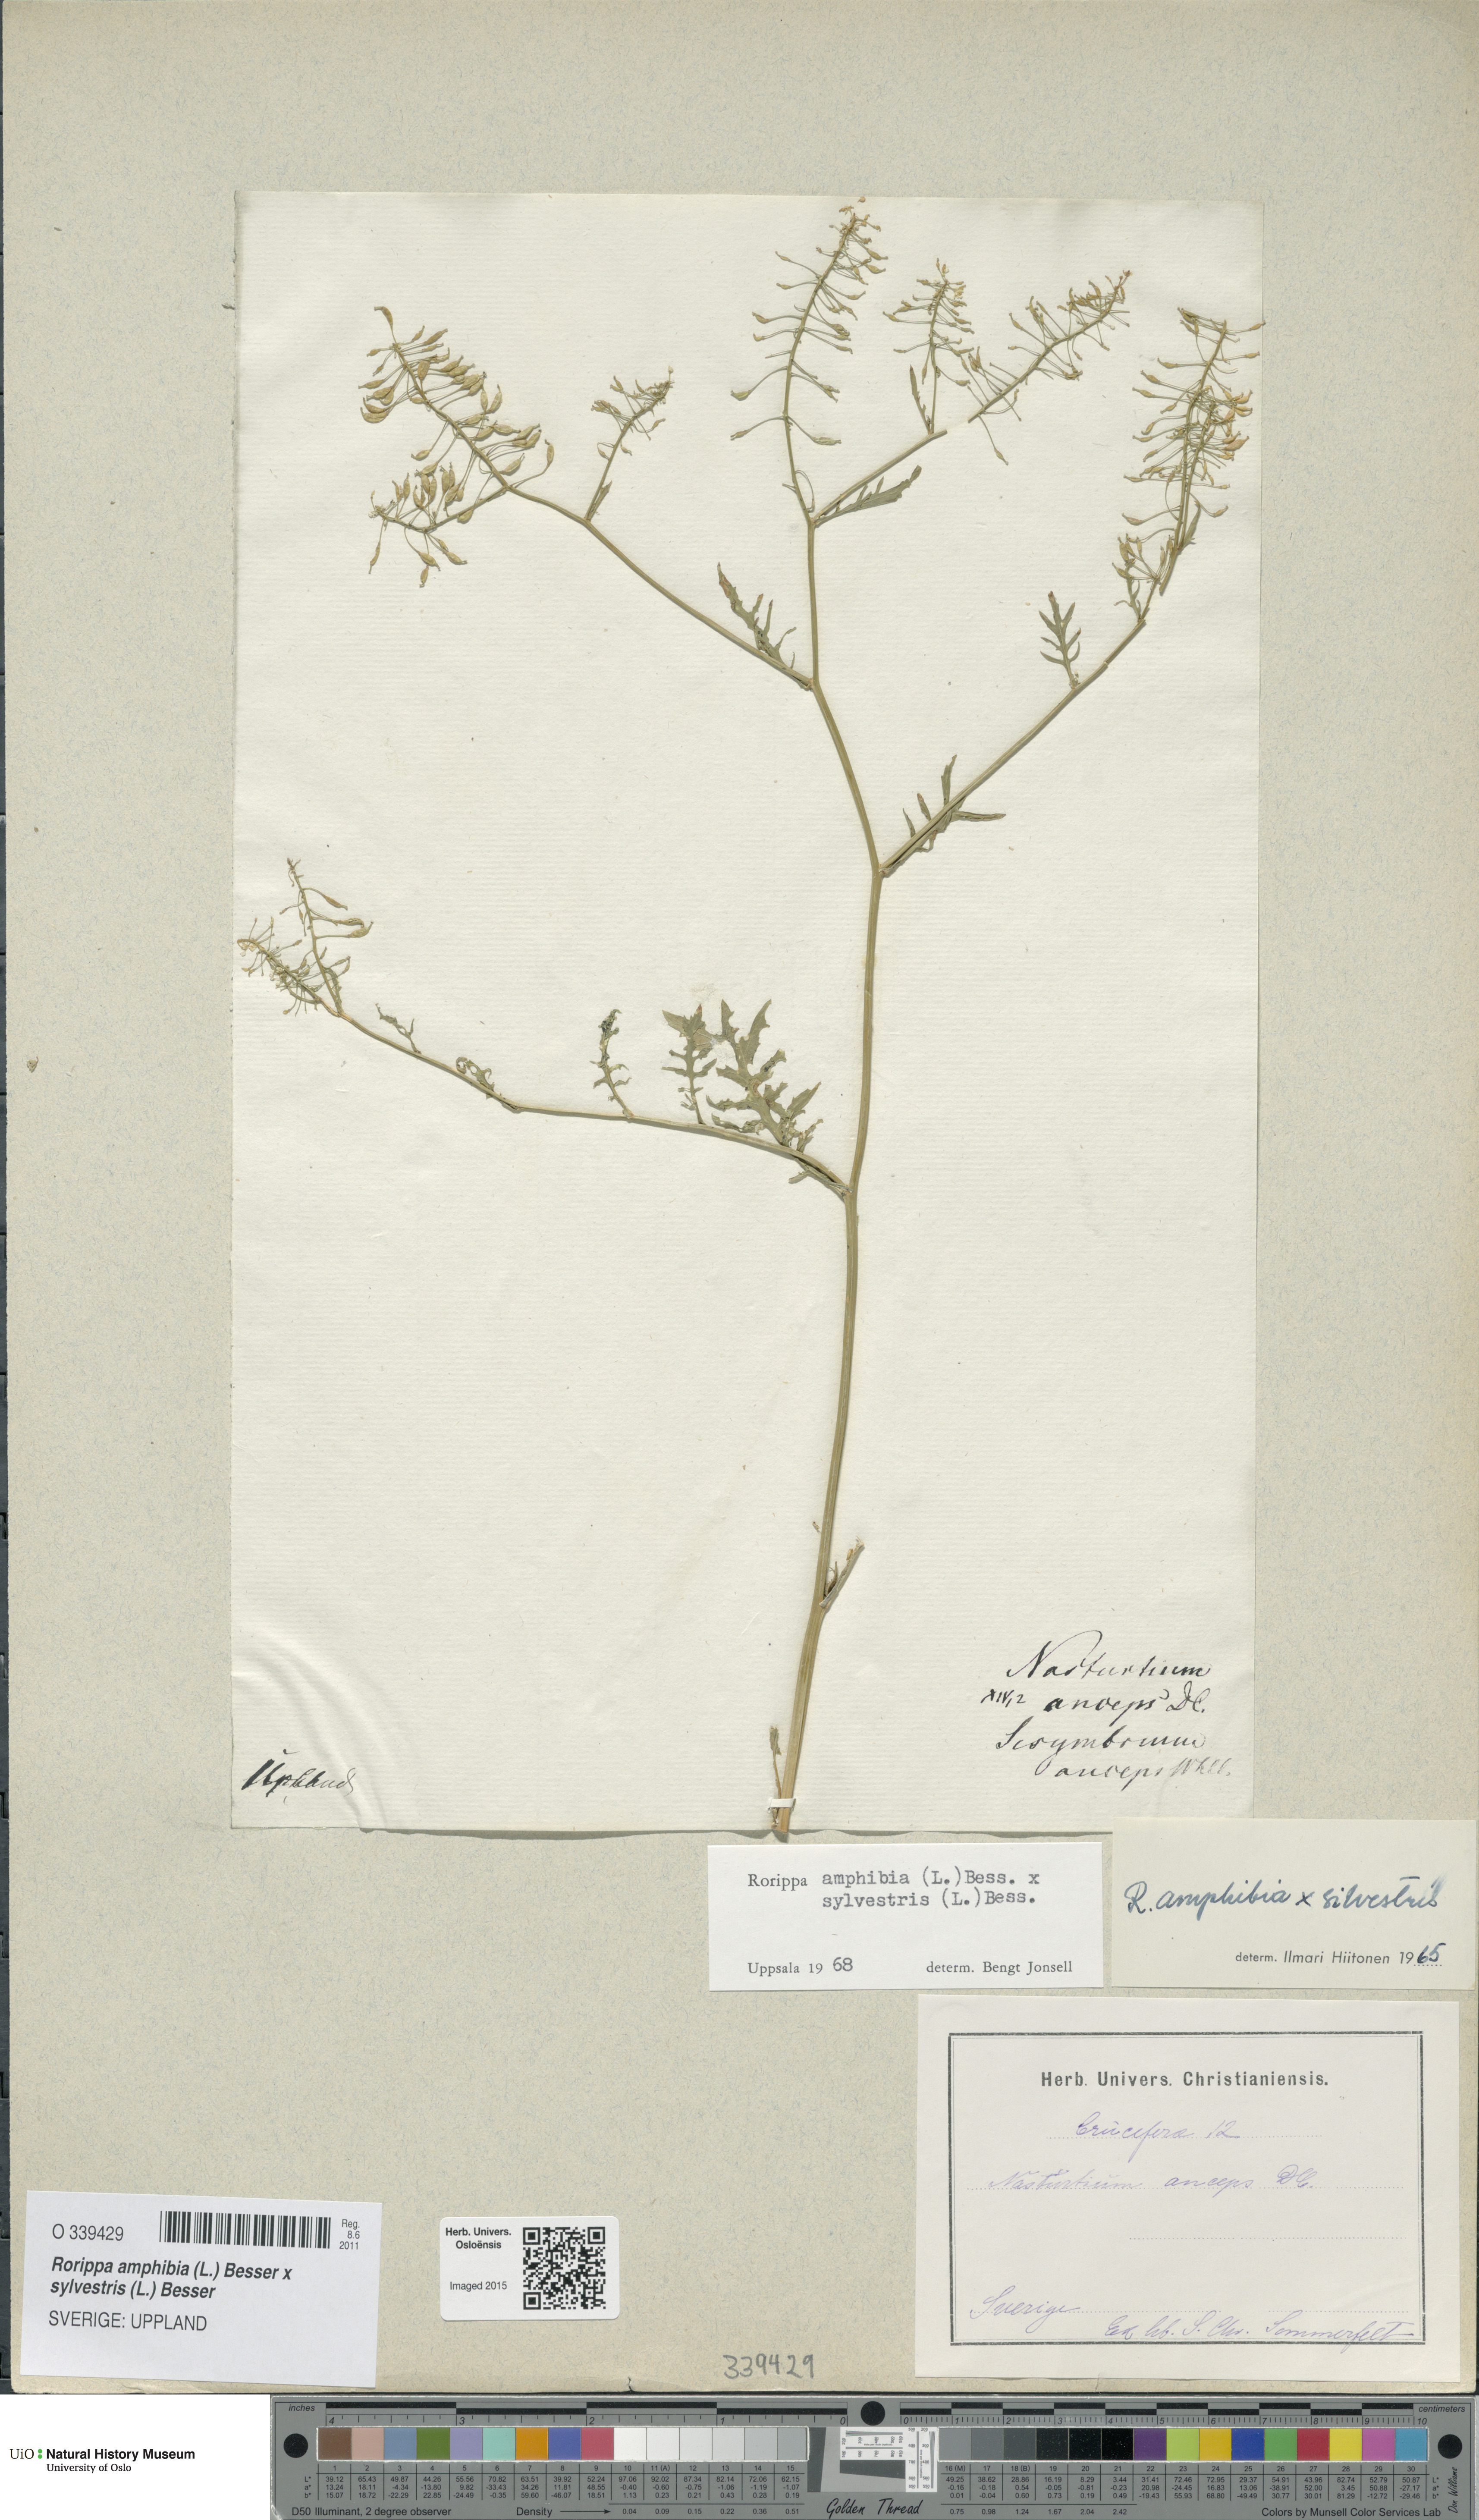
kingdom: Plantae
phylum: Tracheophyta
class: Magnoliopsida
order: Brassicales
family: Brassicaceae
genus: Rorippa
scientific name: Rorippa
